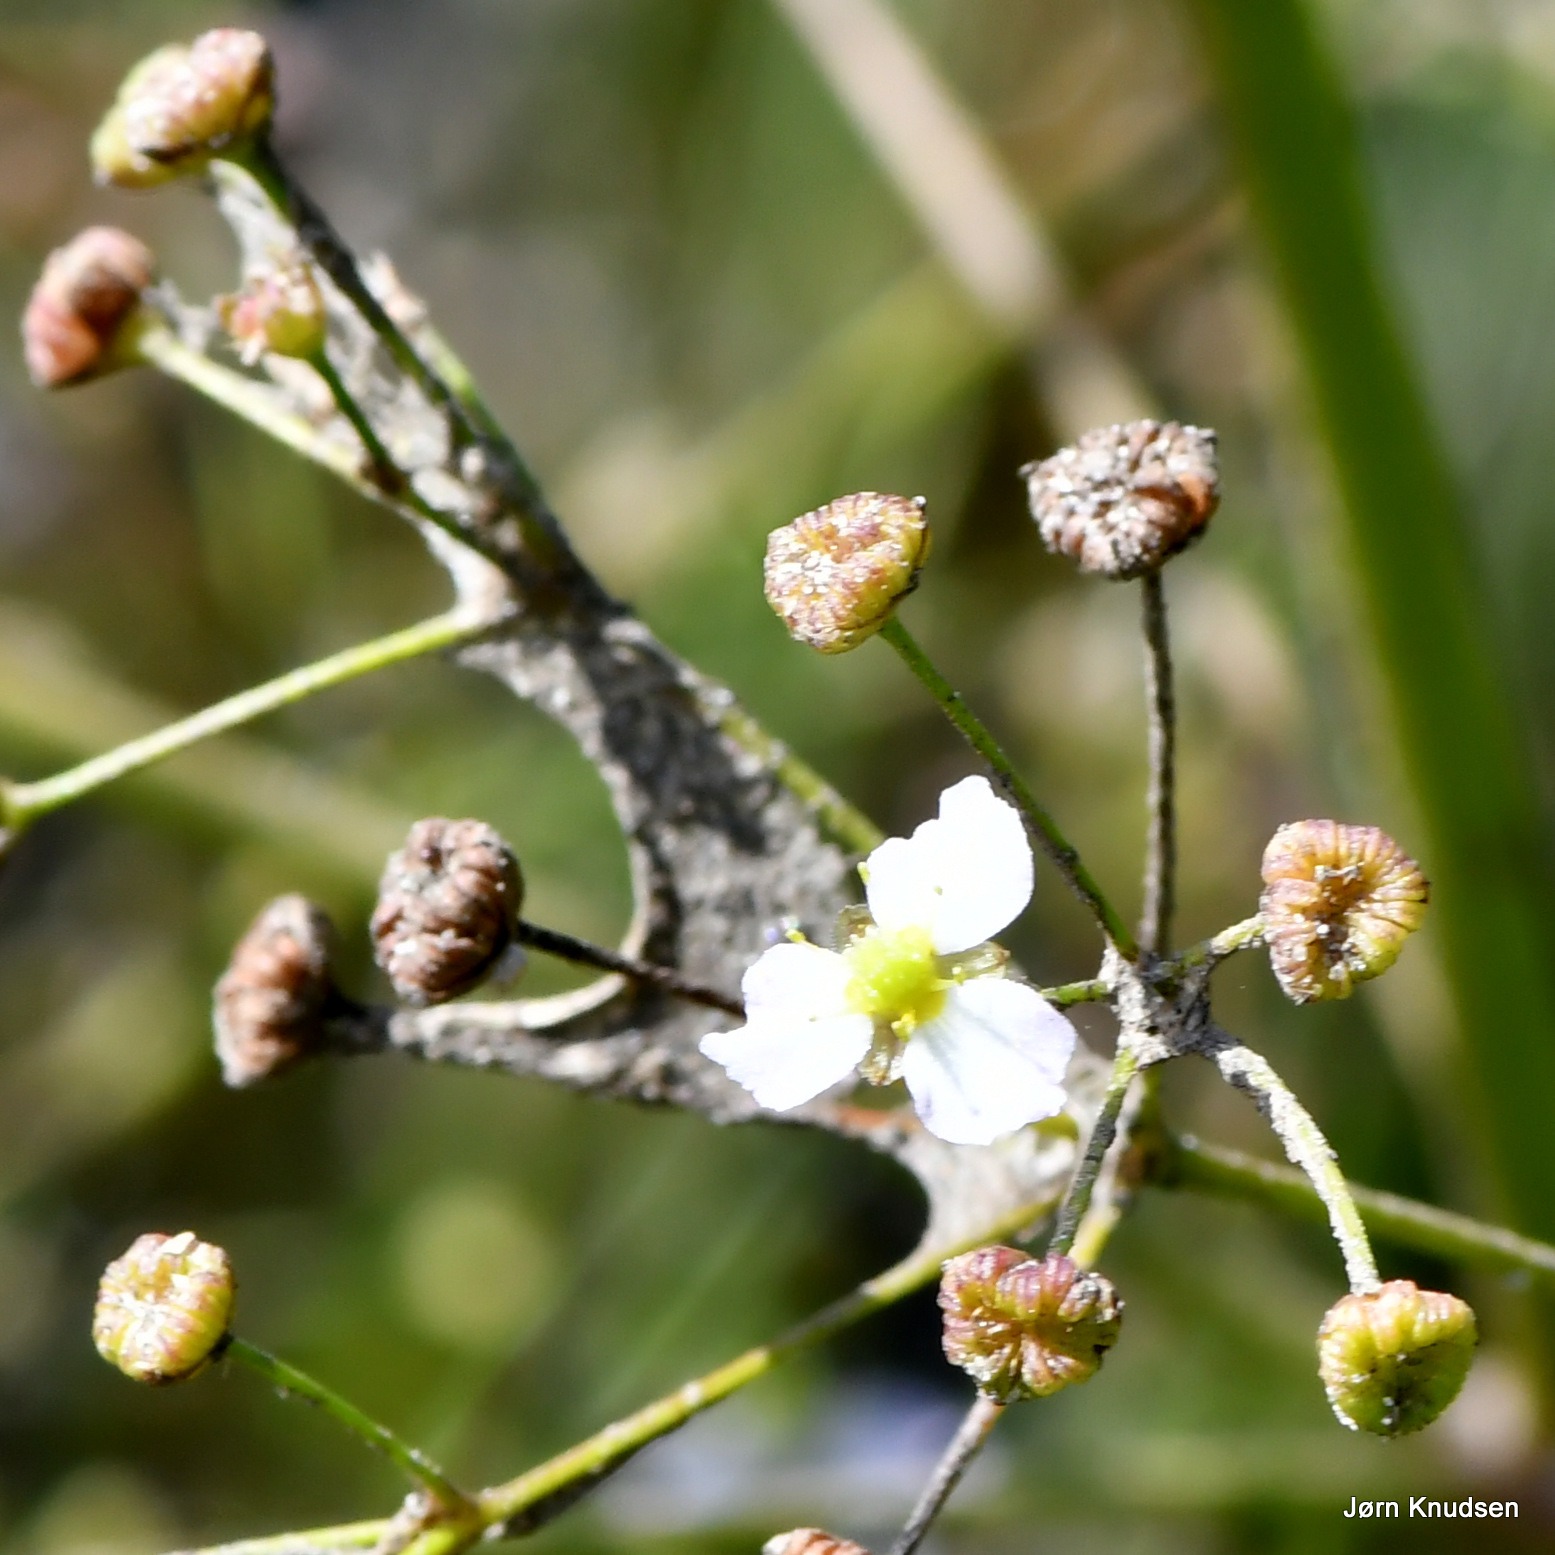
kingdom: Plantae
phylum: Tracheophyta
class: Liliopsida
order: Alismatales
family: Alismataceae
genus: Alisma
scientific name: Alisma plantago-aquatica
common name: Vejbred-skeblad
